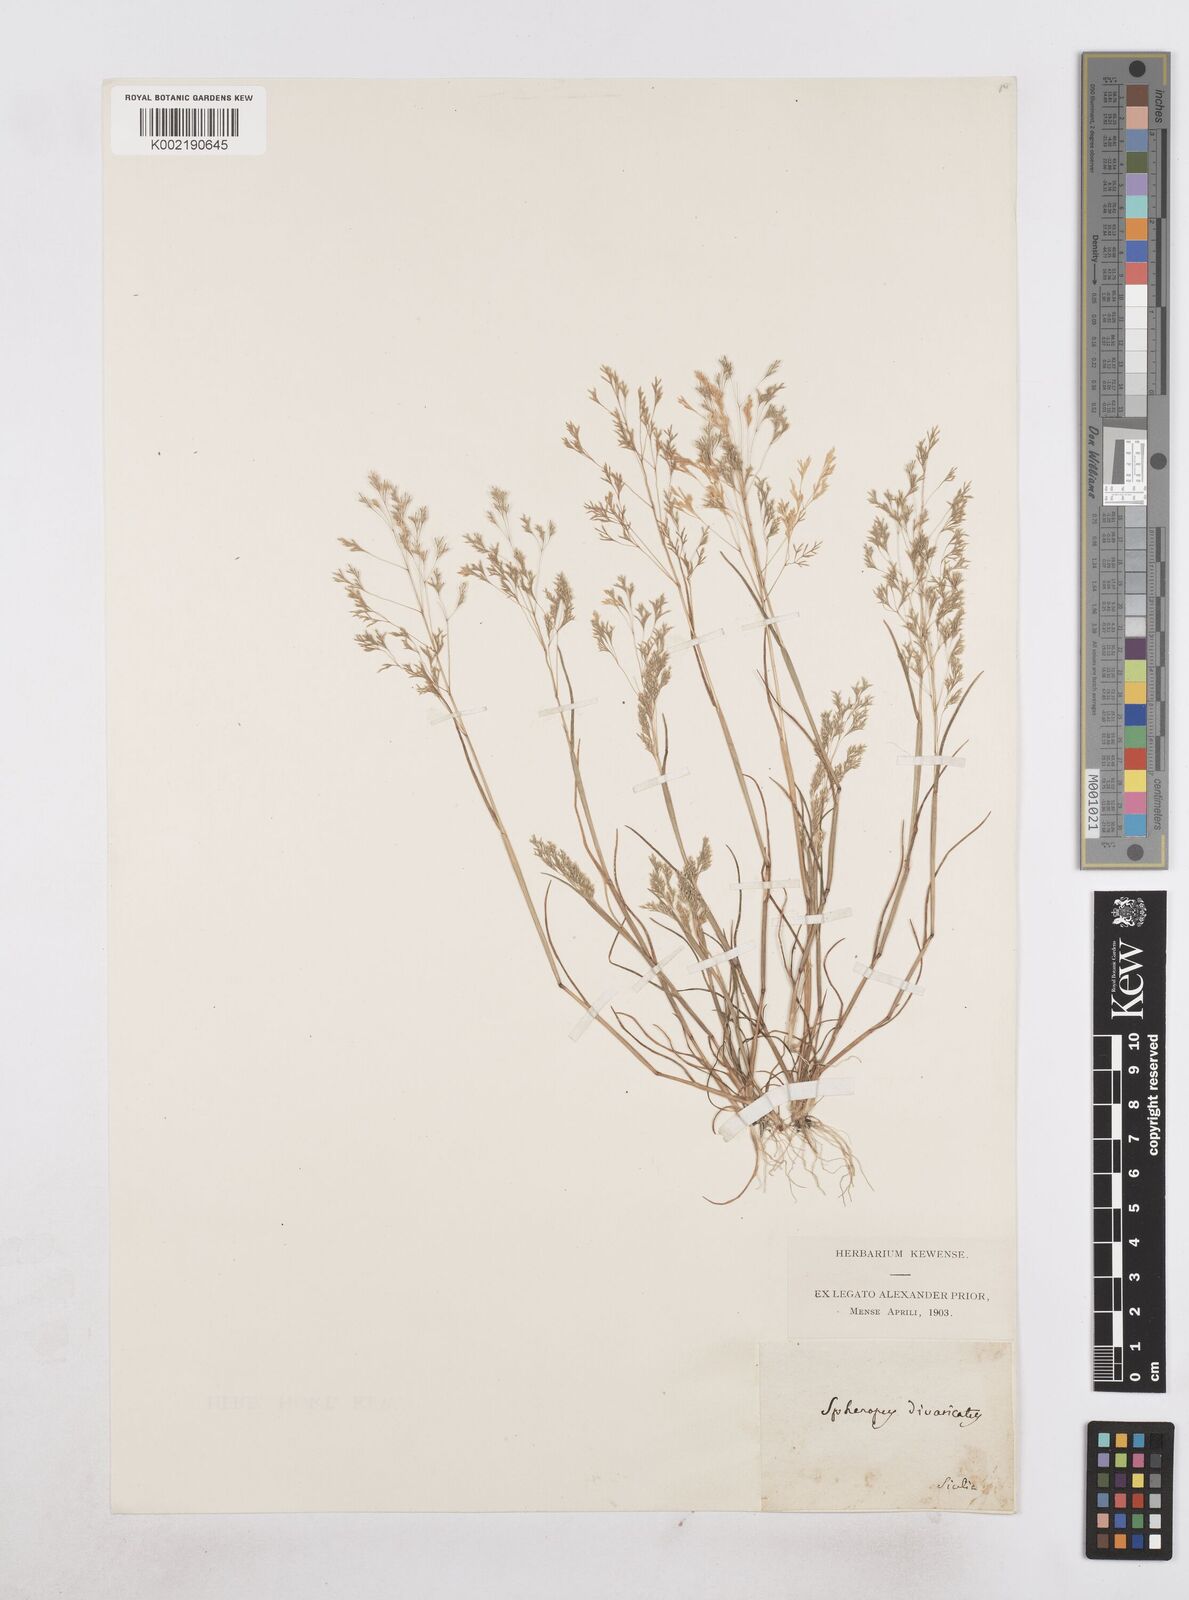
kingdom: Plantae
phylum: Tracheophyta
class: Liliopsida
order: Poales
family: Poaceae
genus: Sphenopus
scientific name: Sphenopus divaricatus
